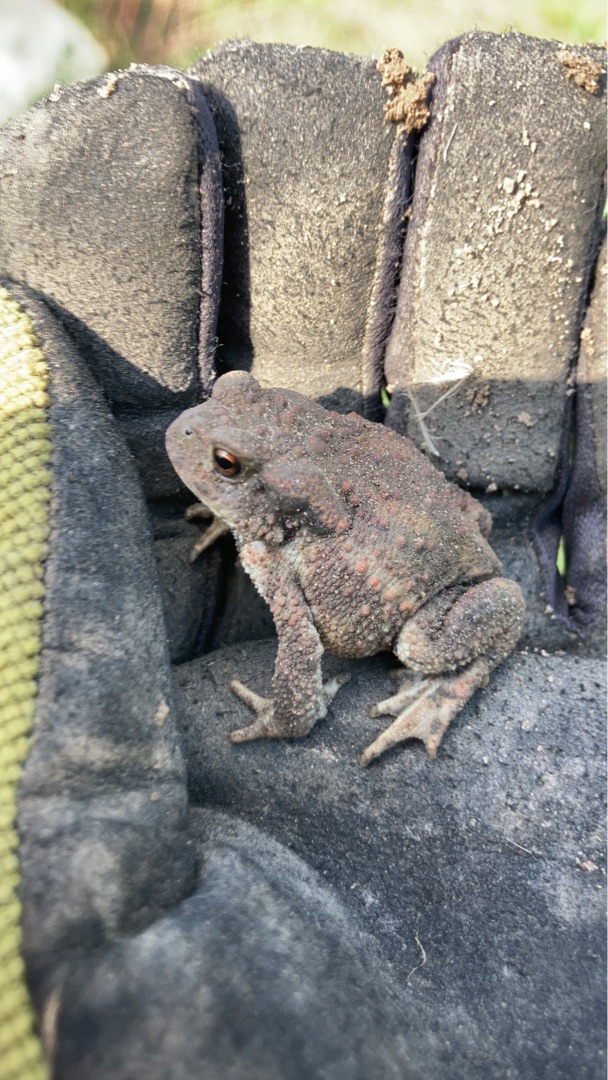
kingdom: Animalia
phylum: Chordata
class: Amphibia
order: Anura
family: Bufonidae
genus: Bufo
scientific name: Bufo bufo
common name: Skrubtudse
